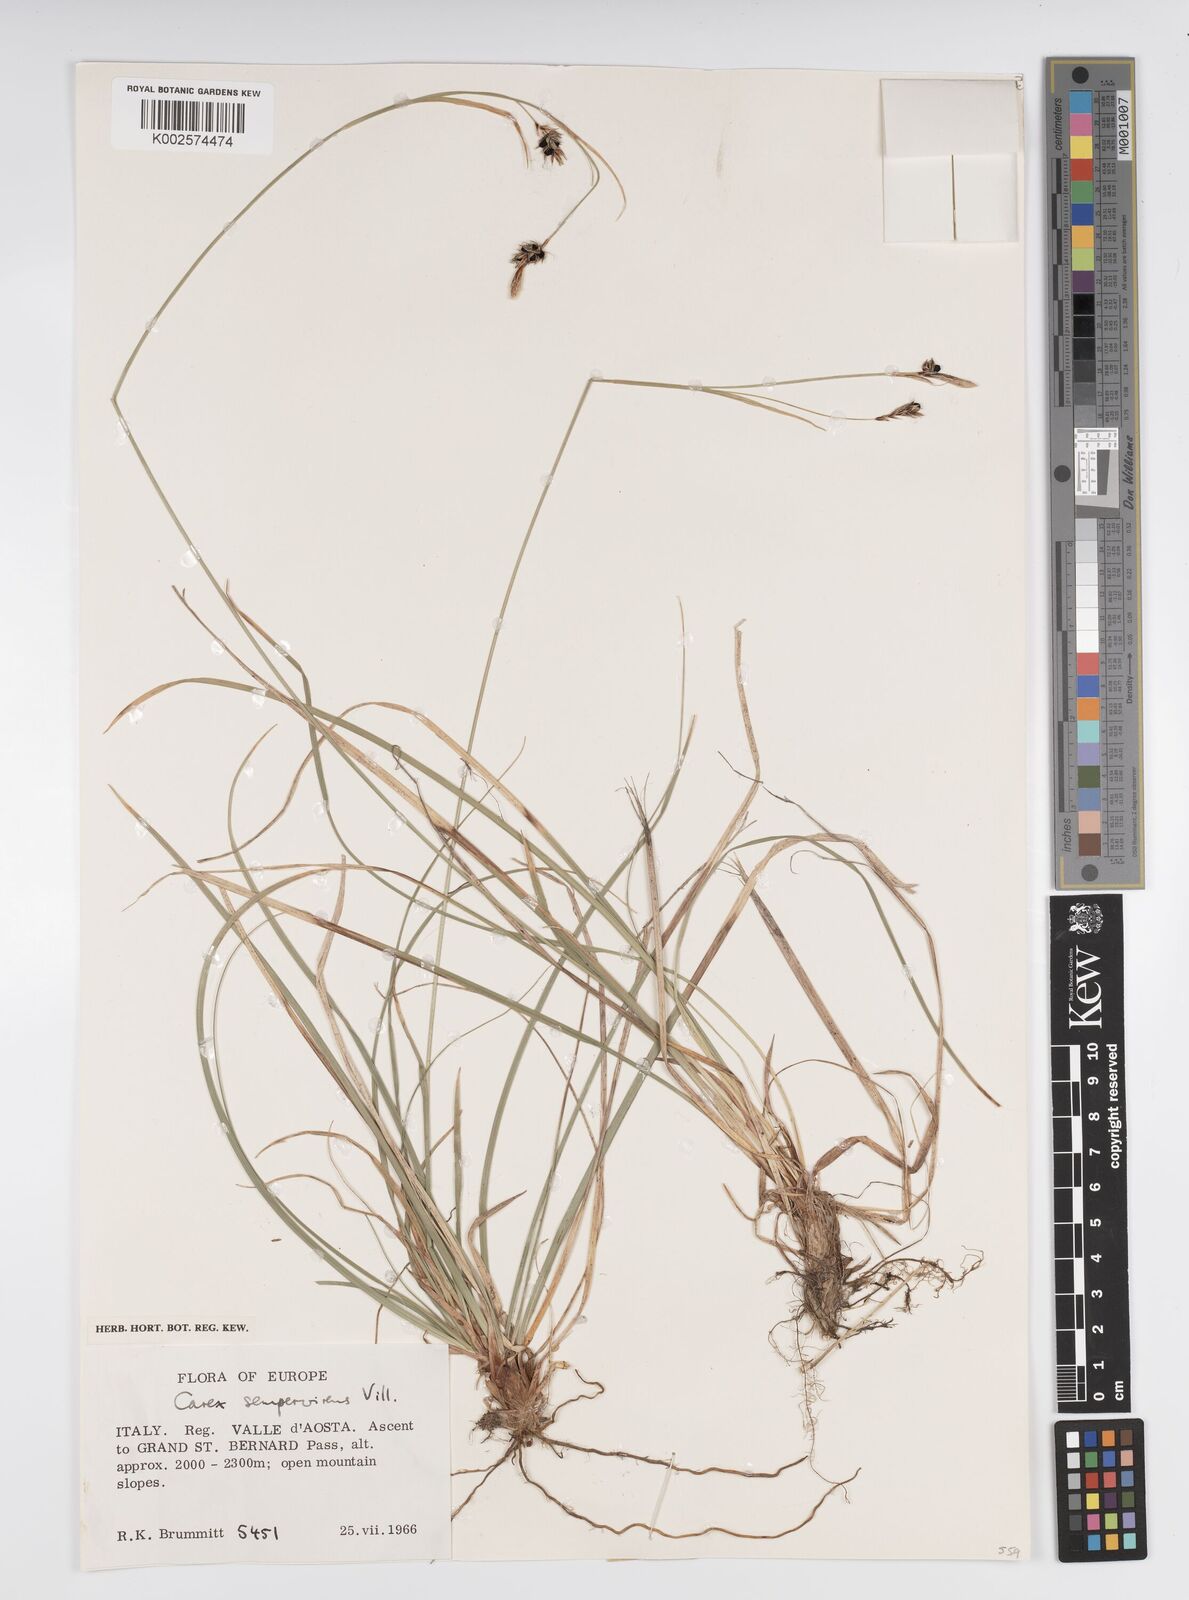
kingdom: Plantae
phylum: Tracheophyta
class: Liliopsida
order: Poales
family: Cyperaceae
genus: Carex
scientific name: Carex sempervirens
